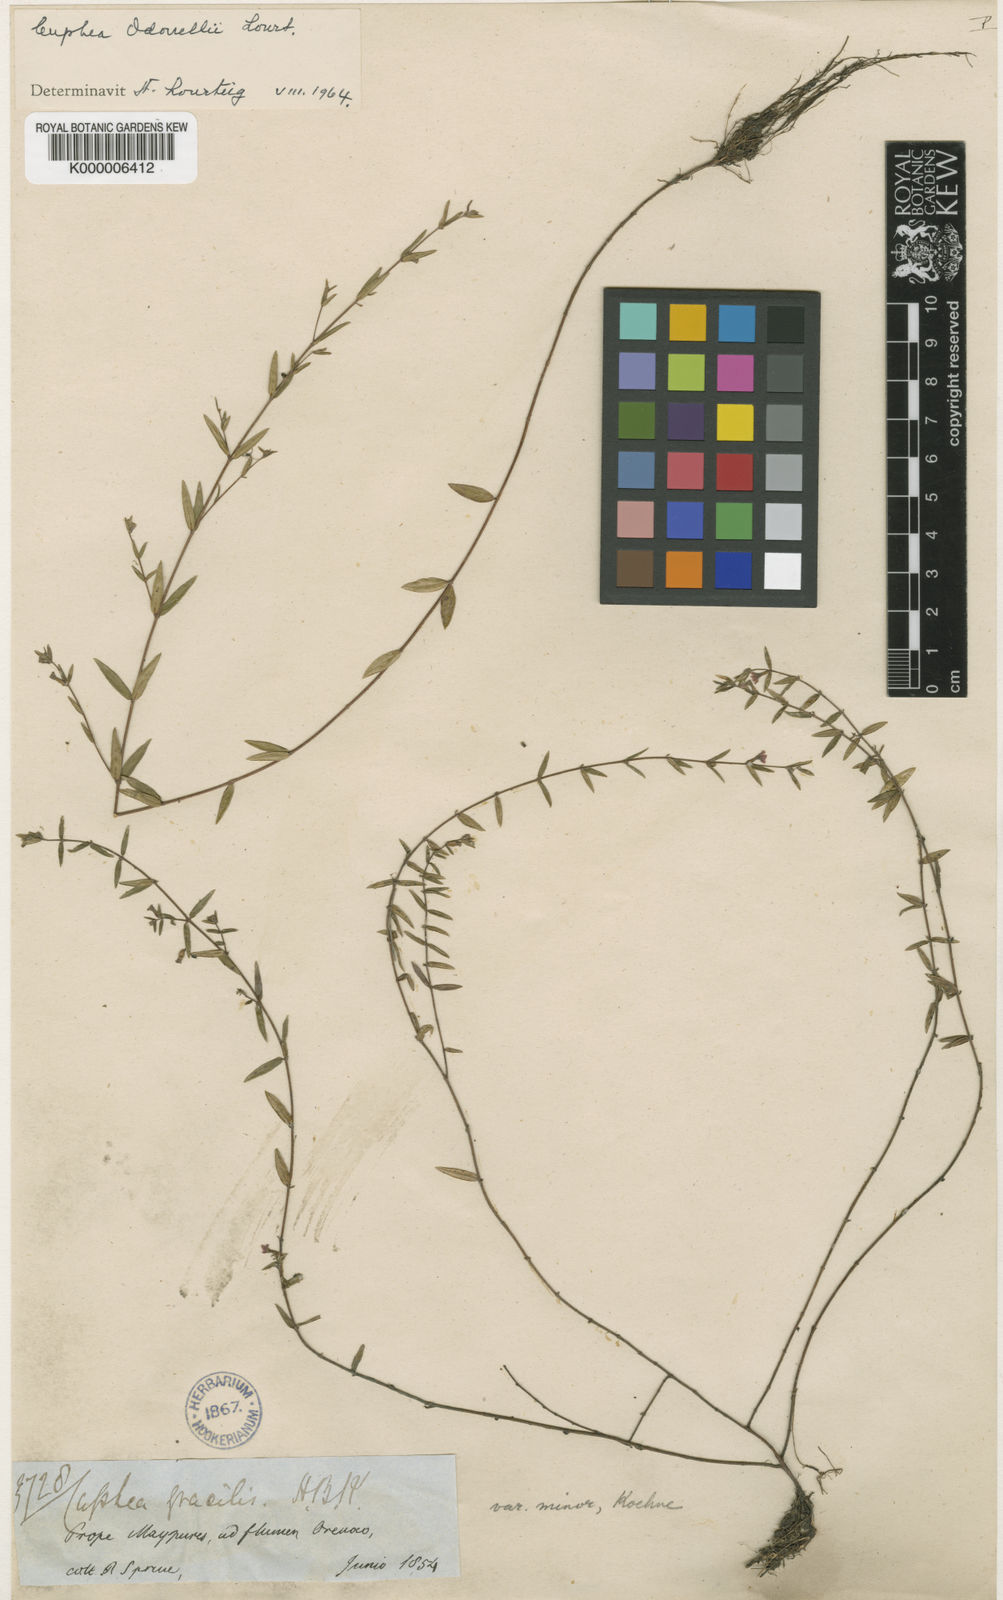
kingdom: Plantae
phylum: Tracheophyta
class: Magnoliopsida
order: Myrtales
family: Lythraceae
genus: Cuphea
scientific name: Cuphea gracilis
